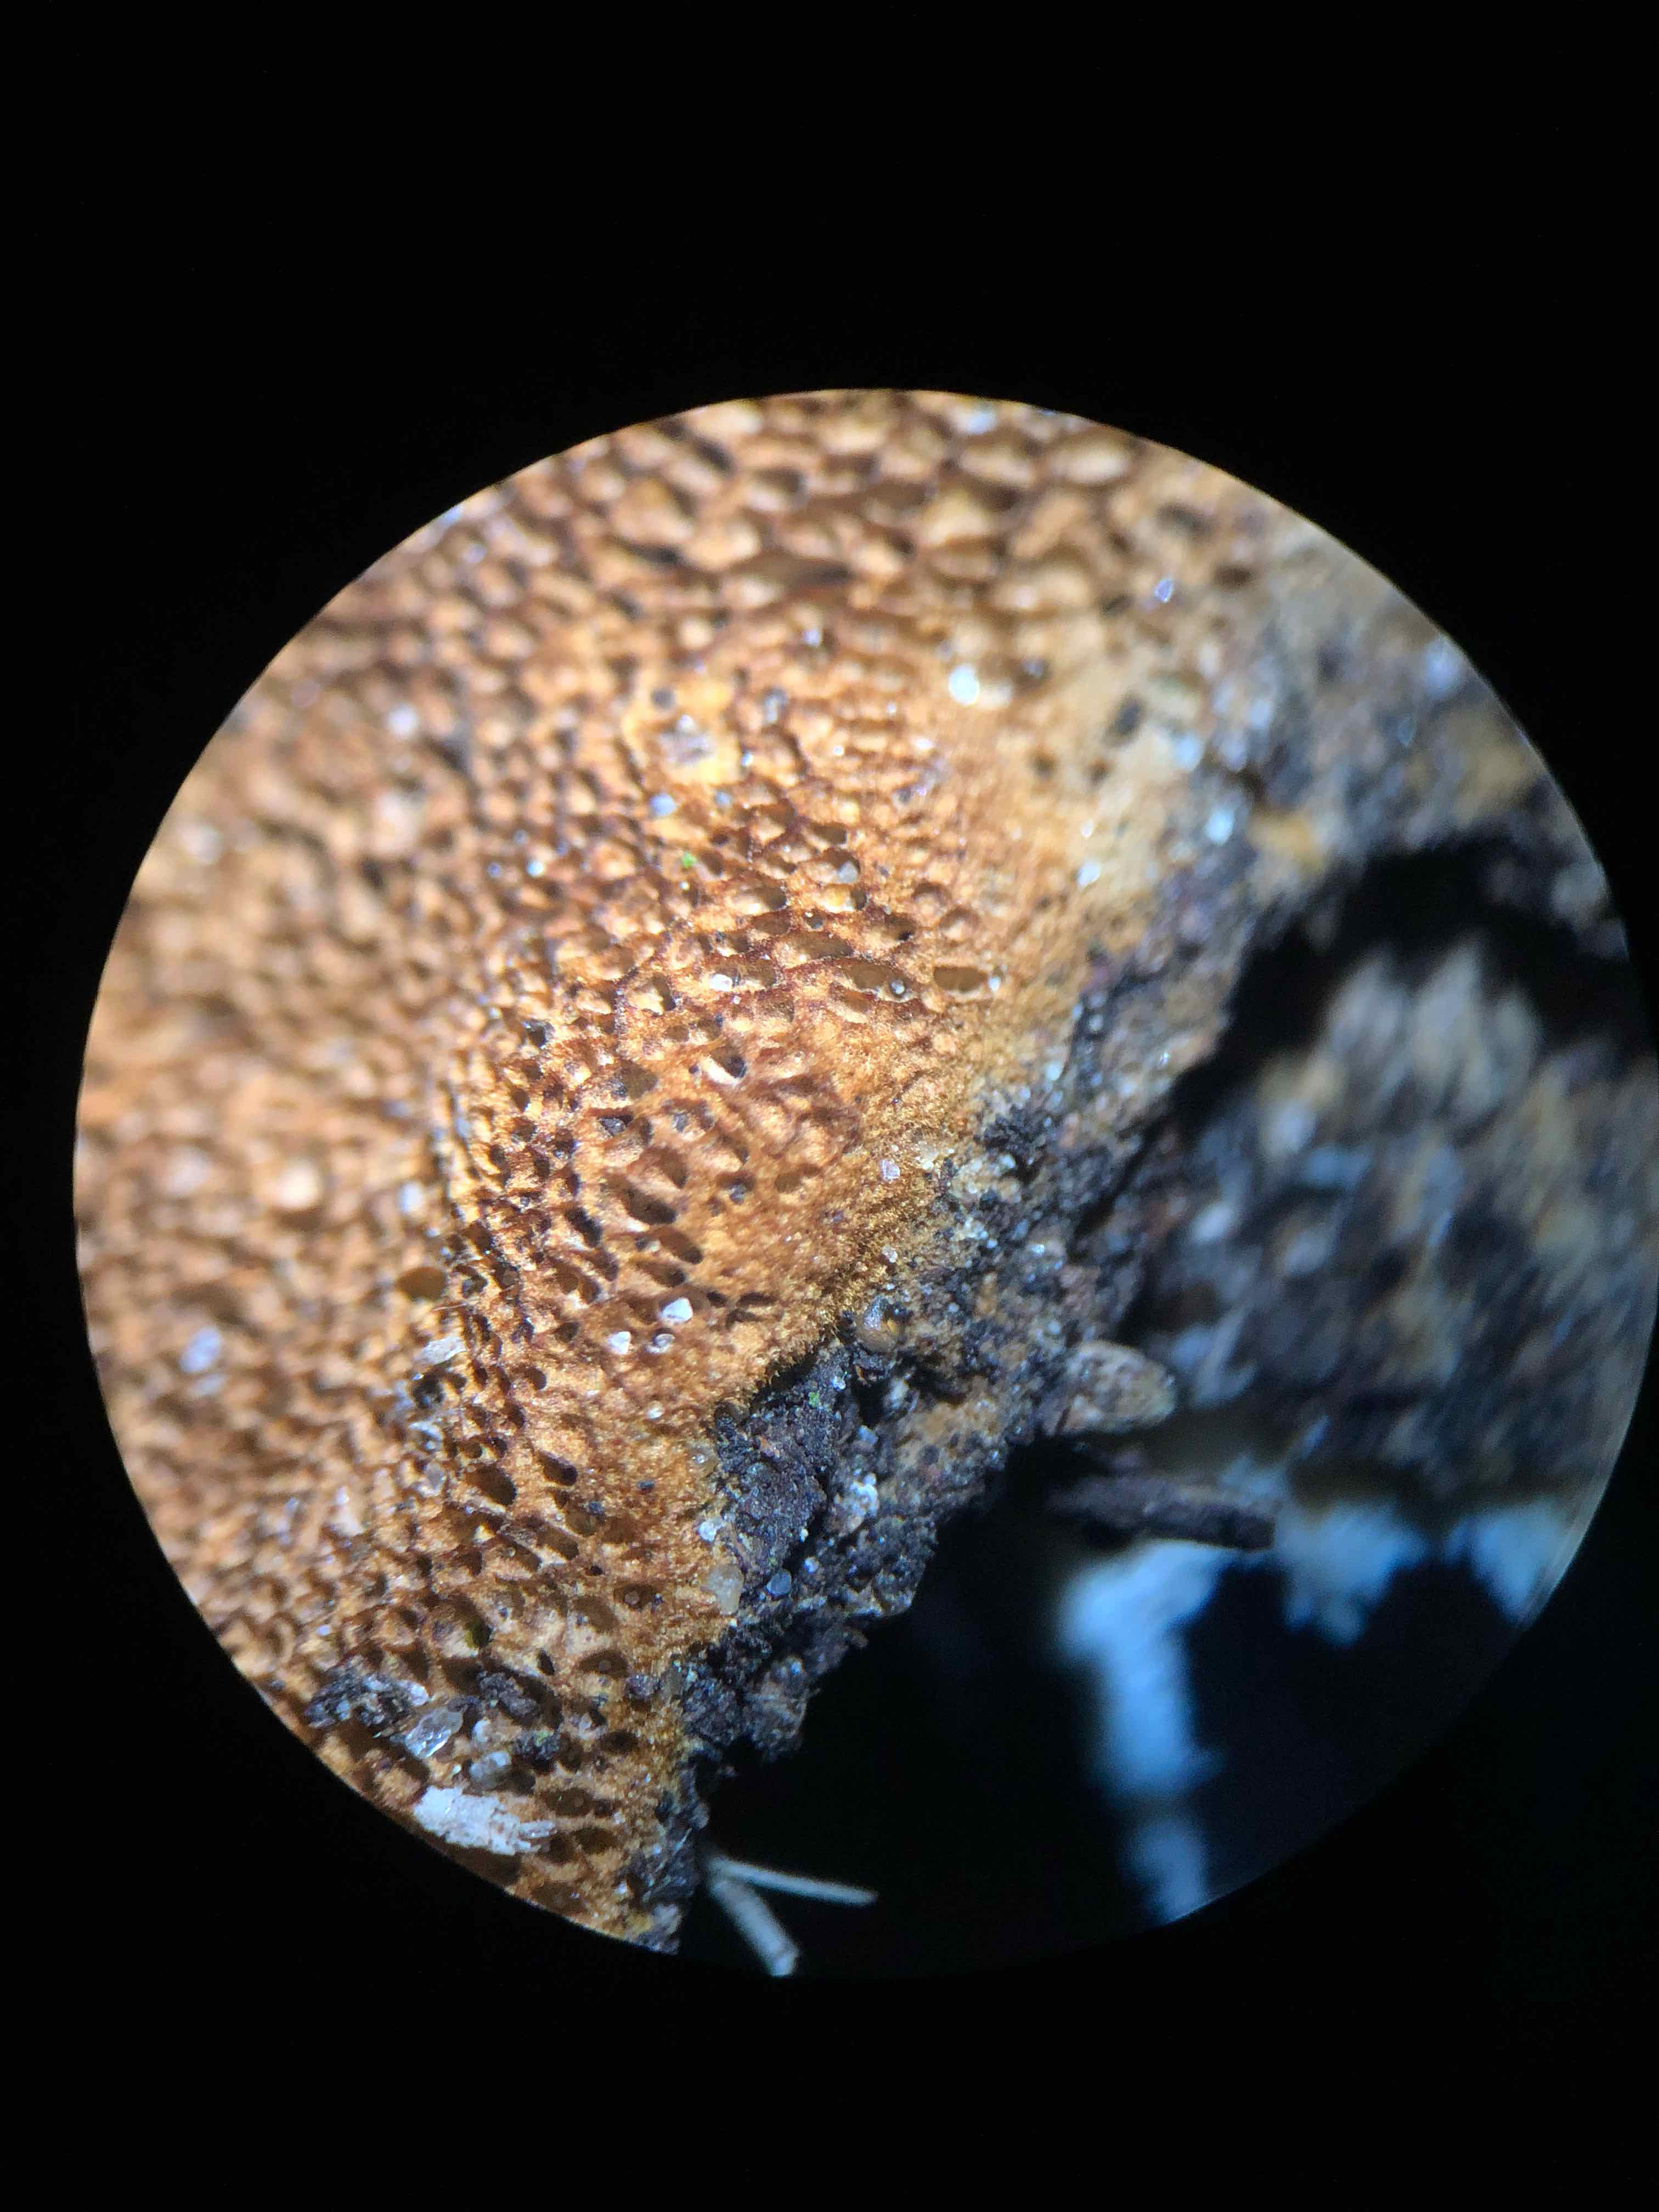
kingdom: Fungi
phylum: Basidiomycota
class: Agaricomycetes
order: Hymenochaetales
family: Hymenochaetaceae
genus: Fuscoporia
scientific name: Fuscoporia ferrea
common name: skorpe-ildporesvamp
